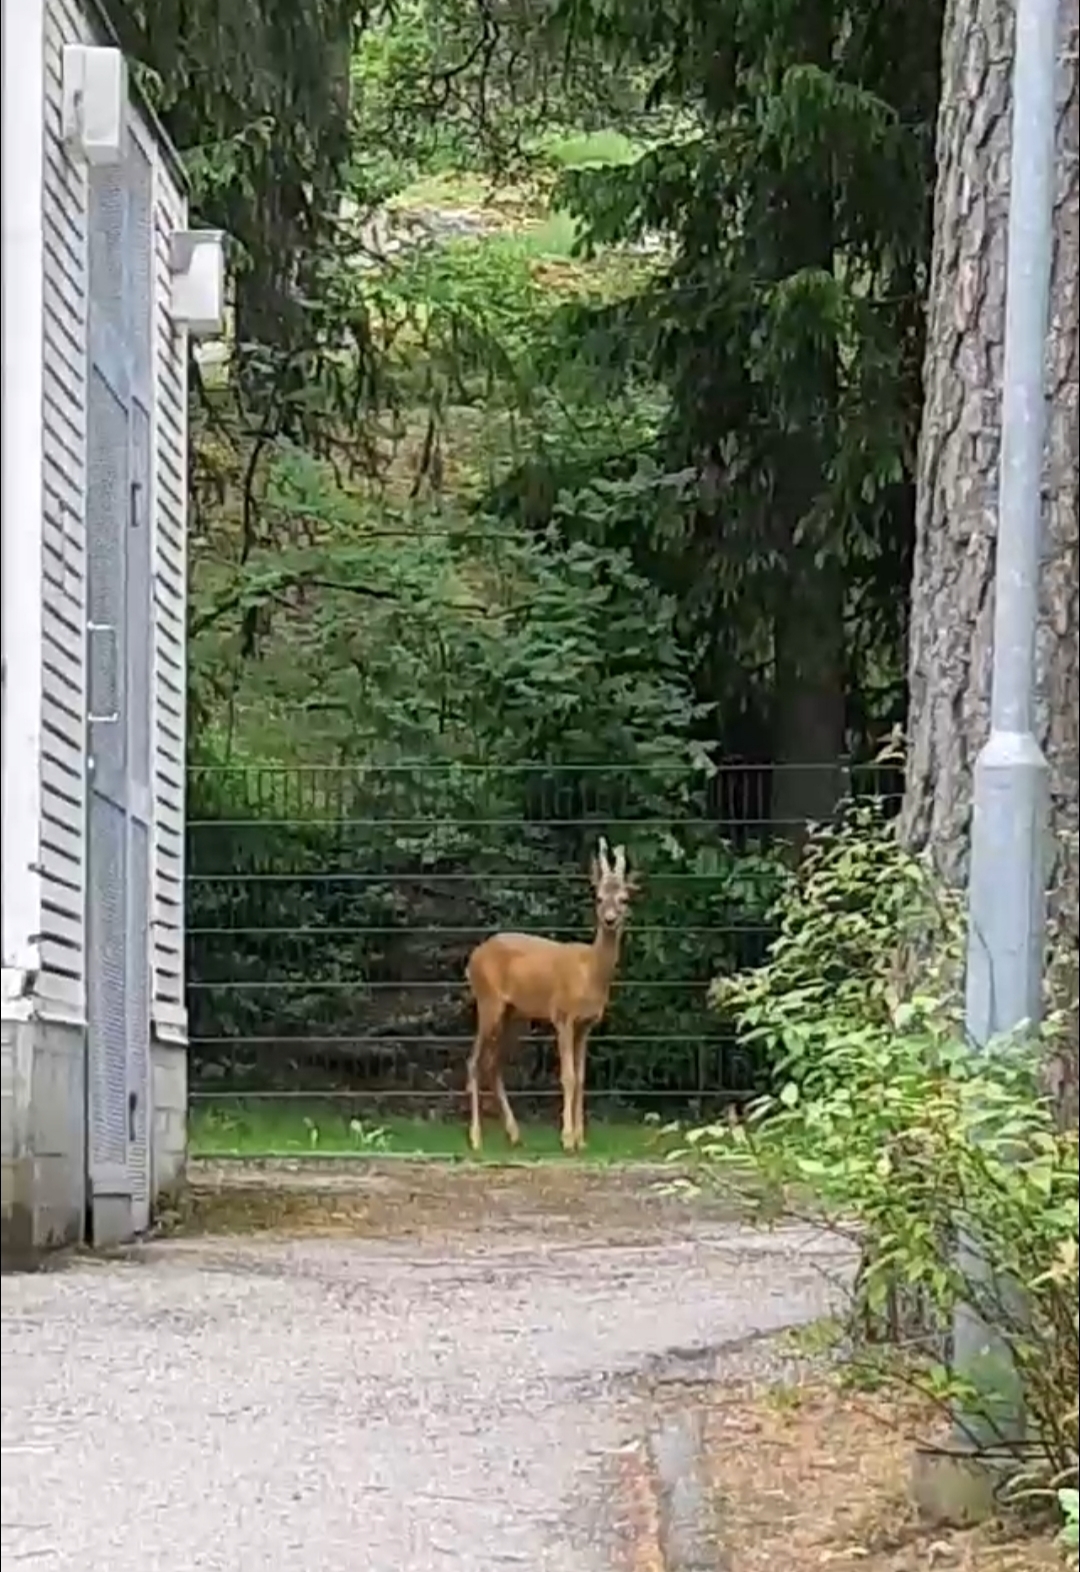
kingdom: Animalia
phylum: Chordata
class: Mammalia
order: Artiodactyla
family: Cervidae
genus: Capreolus
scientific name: Capreolus capreolus
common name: Western roe deer
